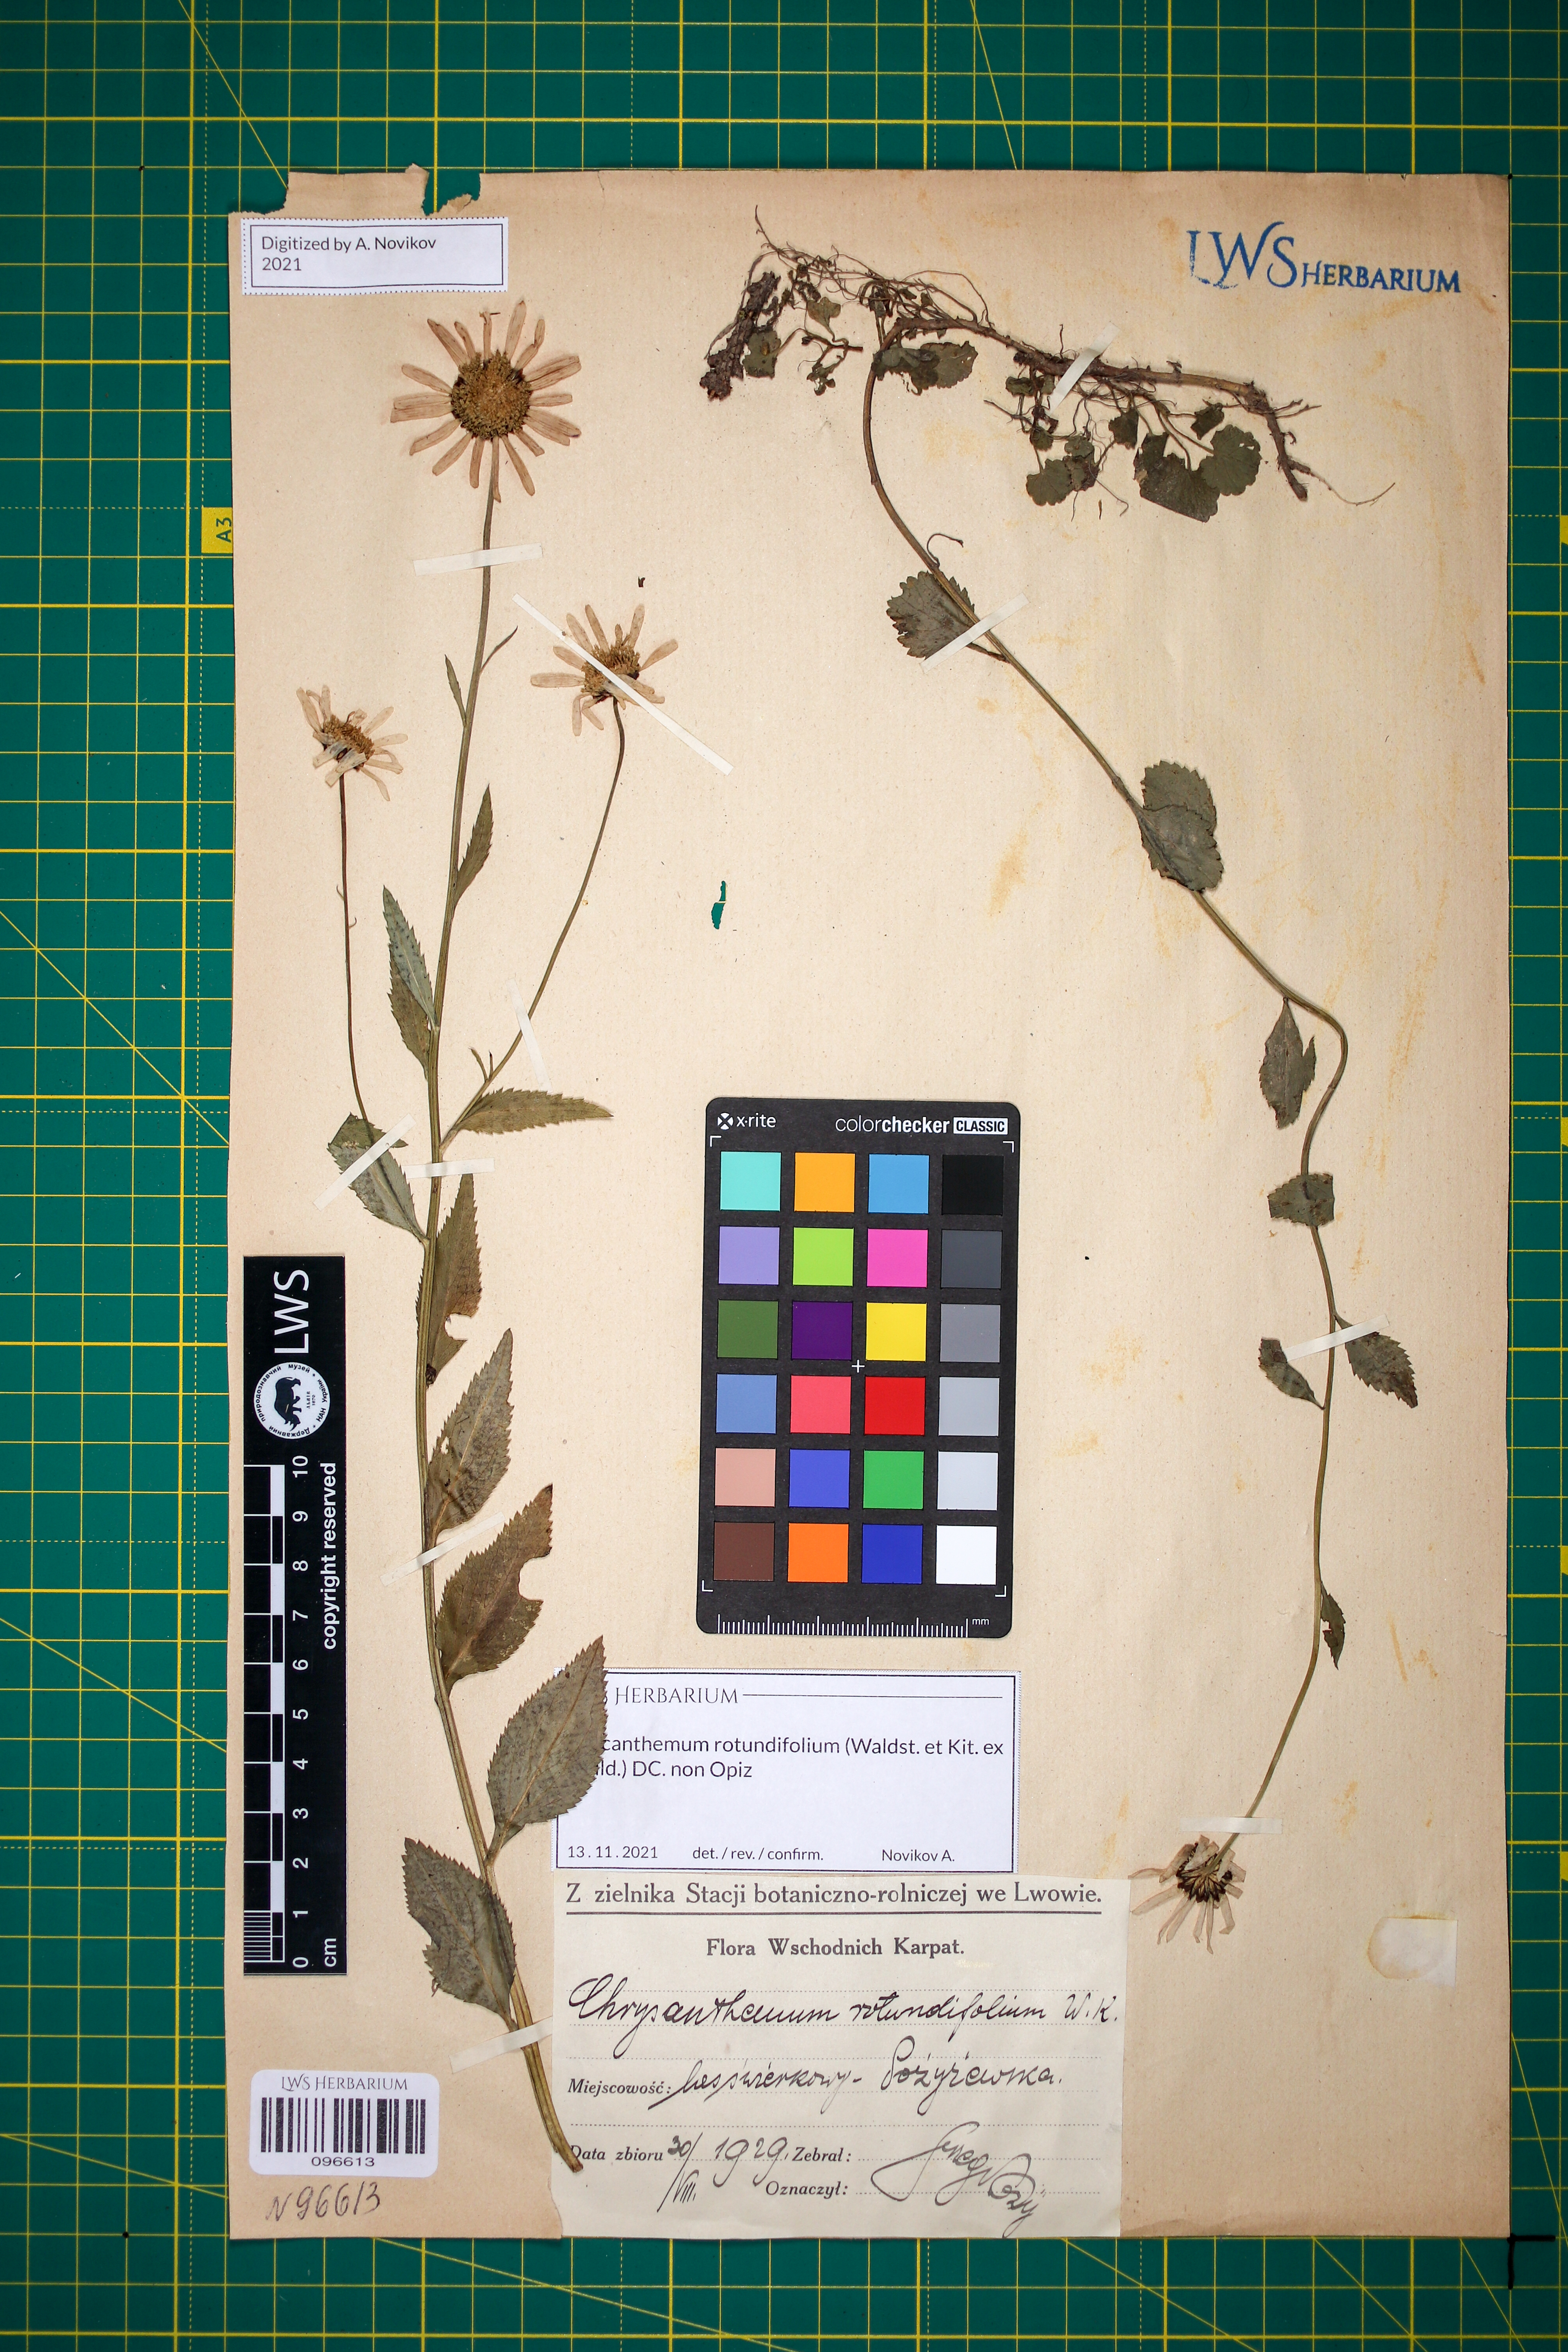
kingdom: Plantae
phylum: Tracheophyta
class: Magnoliopsida
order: Asterales
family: Asteraceae
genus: Leucanthemum
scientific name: Leucanthemum rotundifolium
